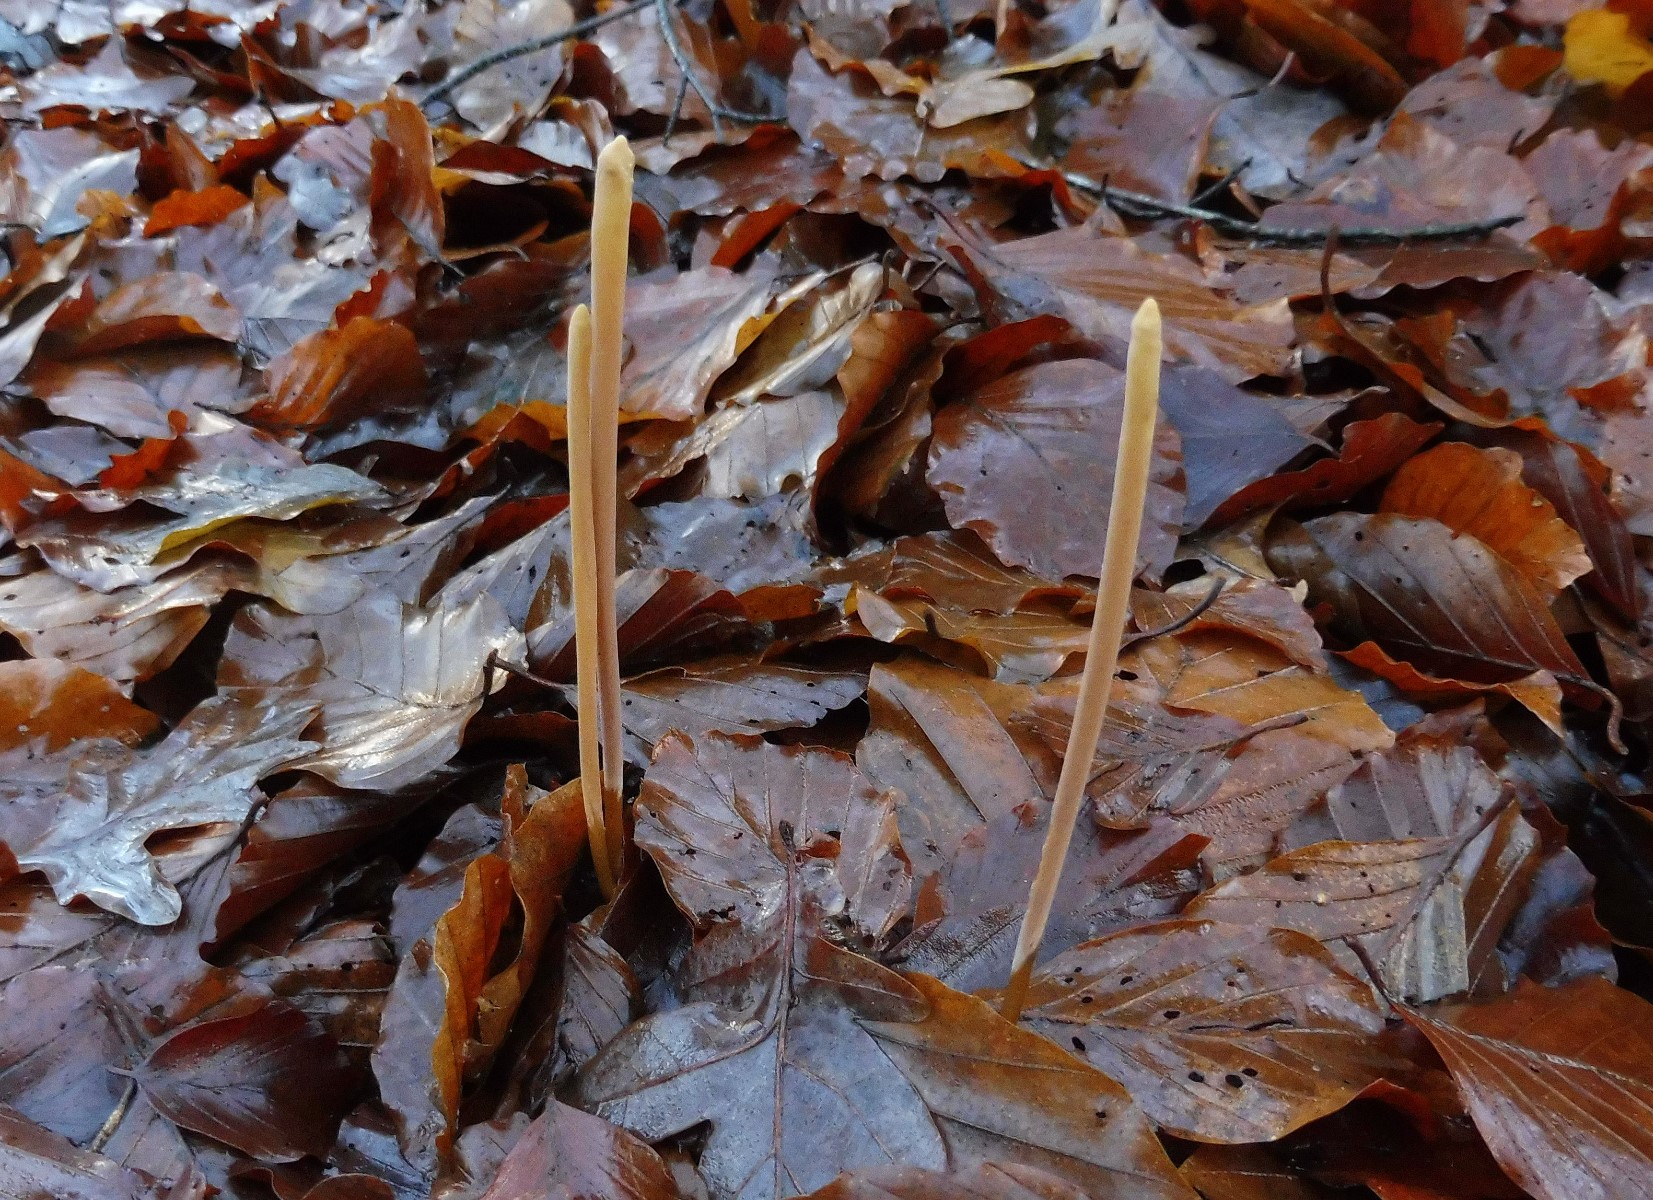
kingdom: Fungi
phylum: Basidiomycota
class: Agaricomycetes
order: Agaricales
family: Typhulaceae
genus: Typhula
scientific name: Typhula fistulosa
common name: pibet rørkølle
